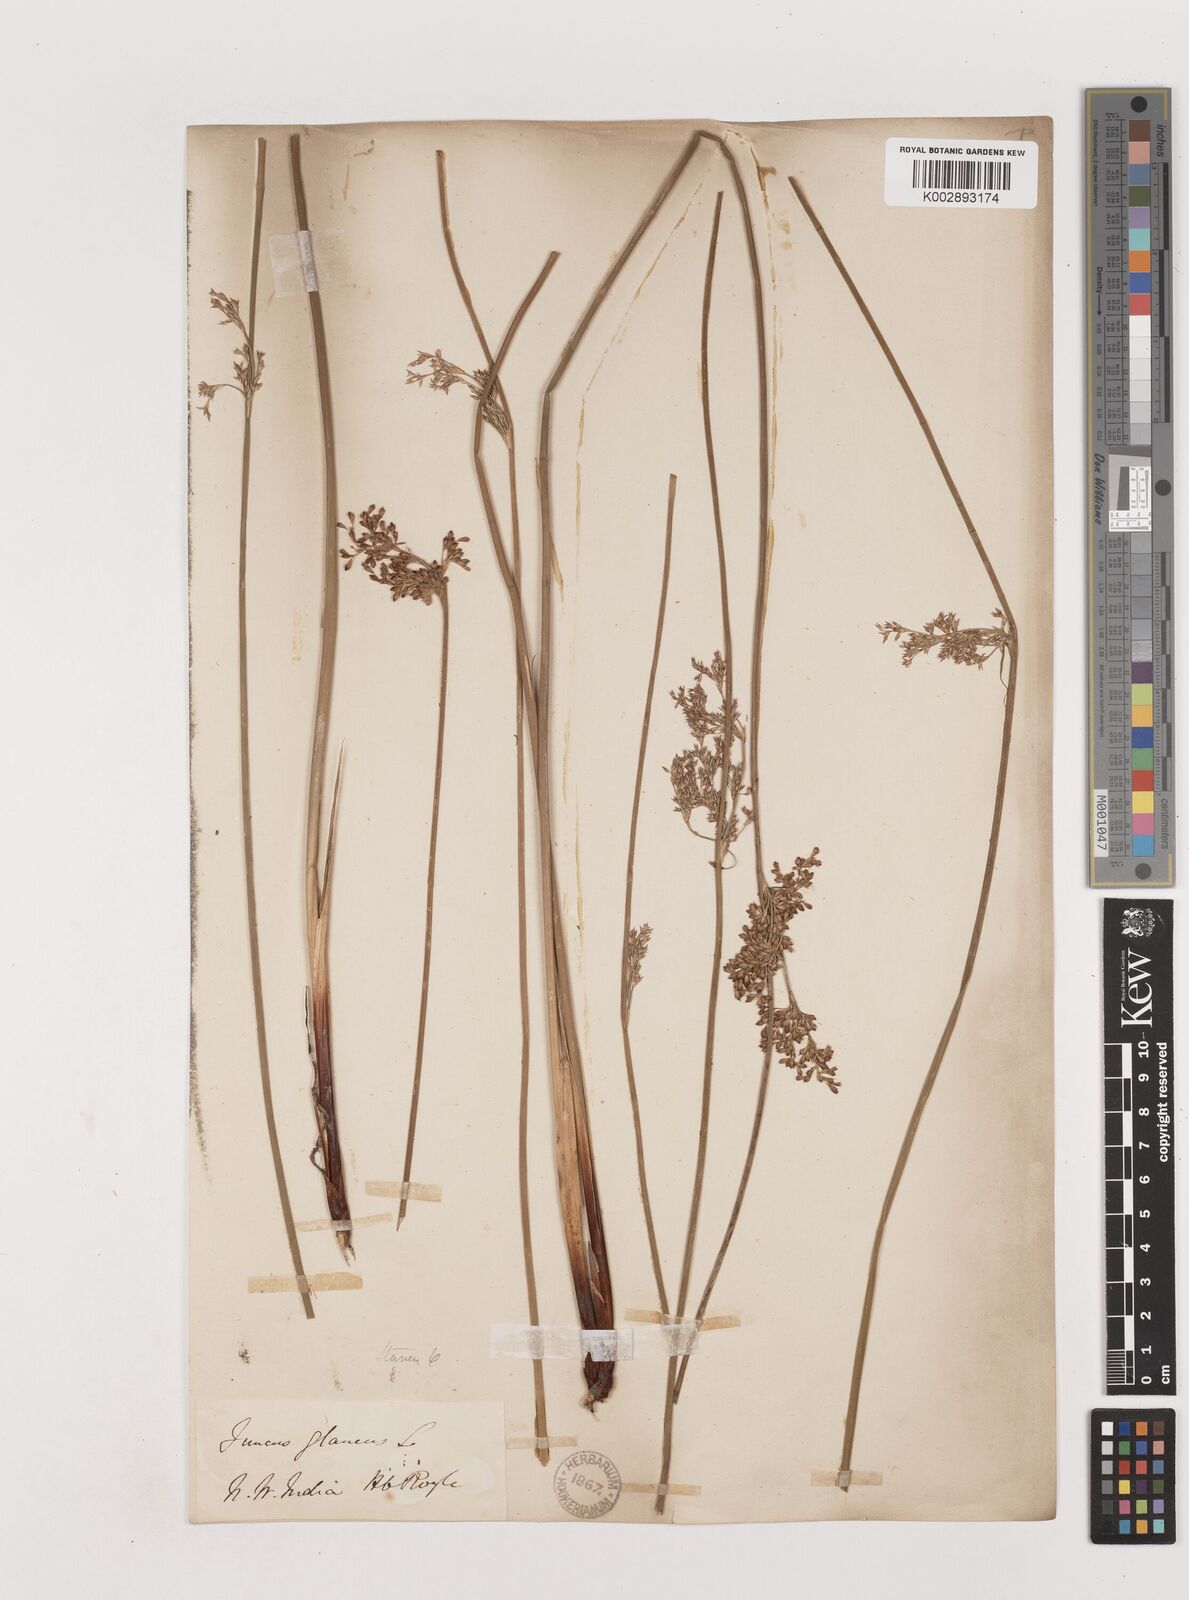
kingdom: Plantae
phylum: Tracheophyta
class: Liliopsida
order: Poales
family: Juncaceae
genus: Juncus
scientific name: Juncus inflexus
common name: Hard rush
